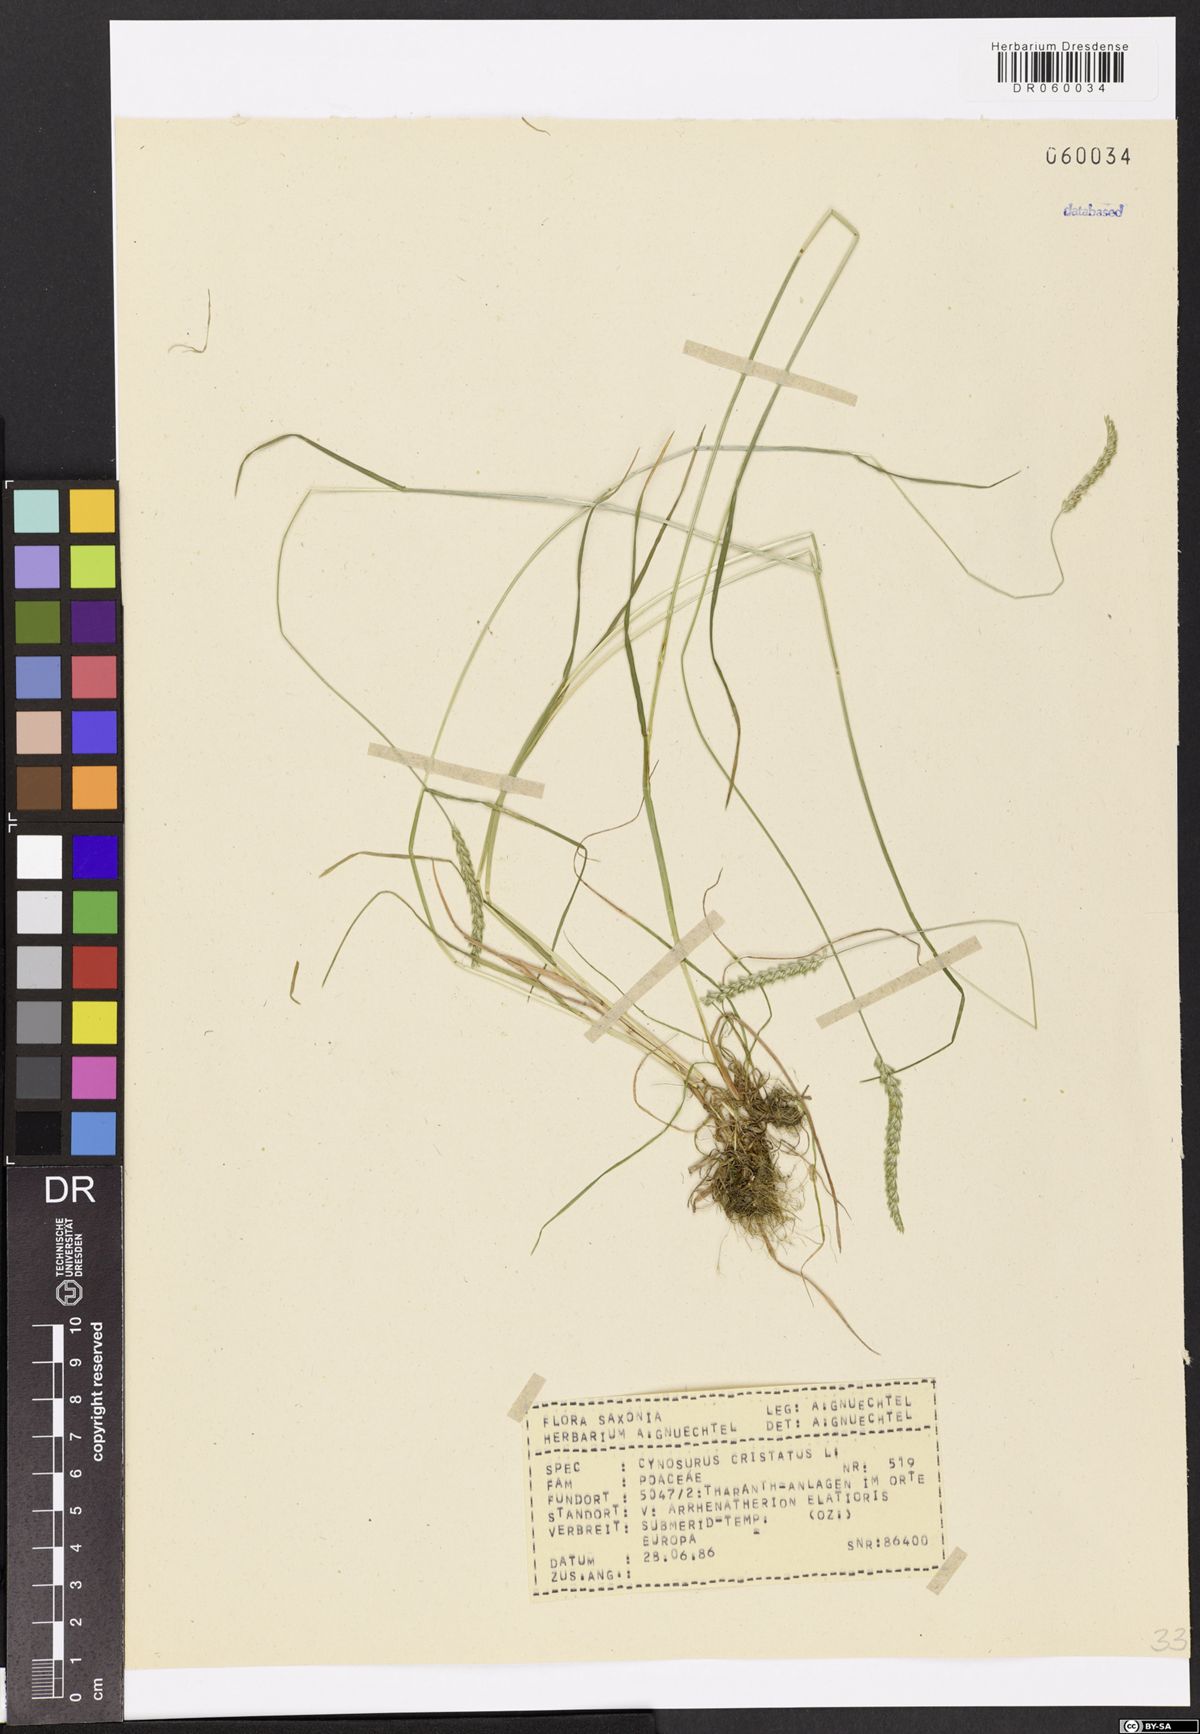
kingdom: Plantae
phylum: Tracheophyta
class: Liliopsida
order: Poales
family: Poaceae
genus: Cynosurus
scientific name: Cynosurus cristatus
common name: Crested dog's-tail
